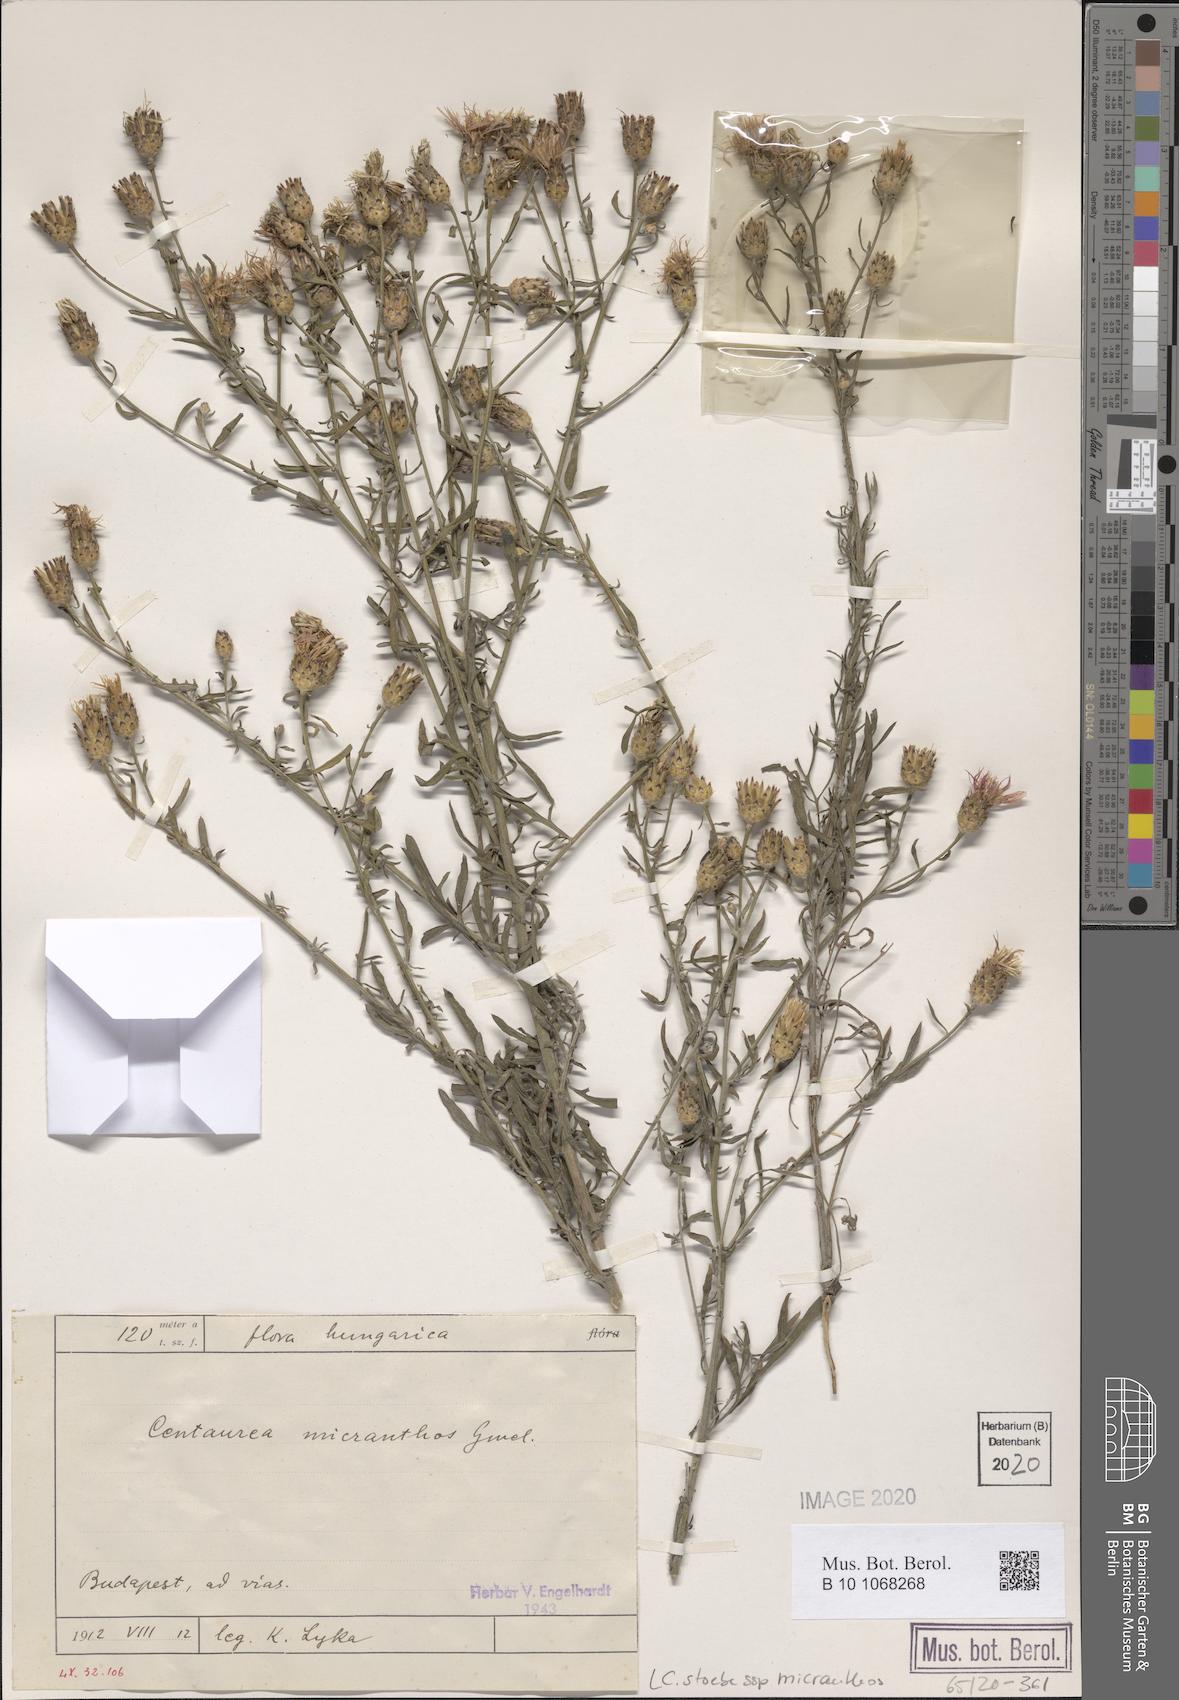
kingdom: Plantae
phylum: Tracheophyta
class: Magnoliopsida
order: Asterales
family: Asteraceae
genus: Centaurea
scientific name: Centaurea australis
